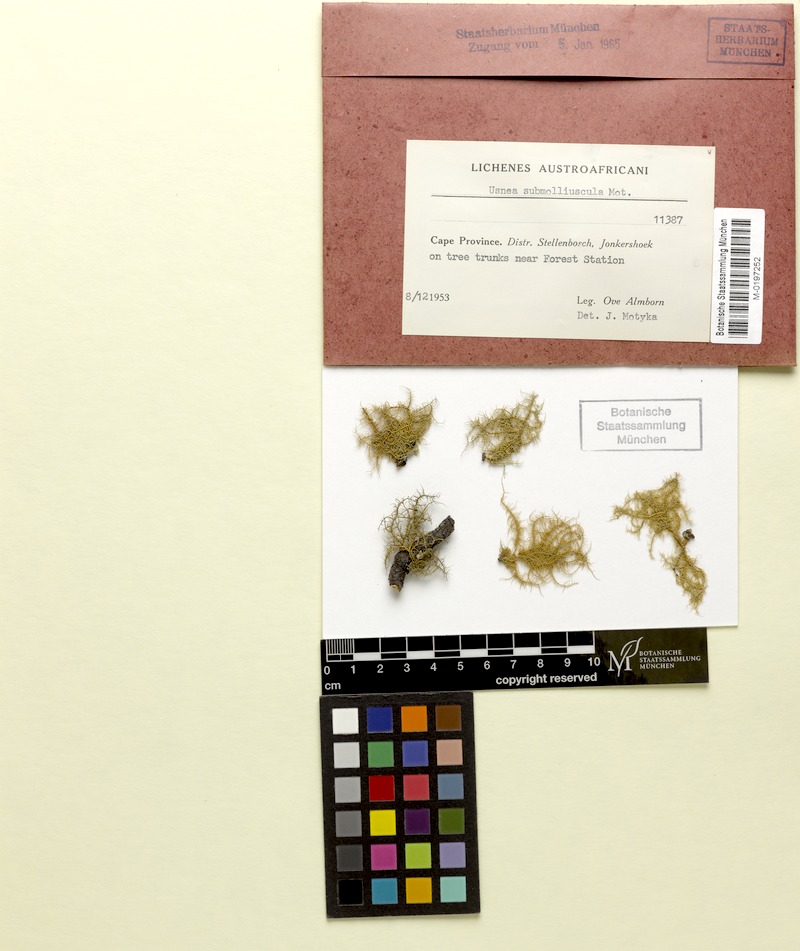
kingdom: Fungi
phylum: Ascomycota
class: Lecanoromycetes
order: Lecanorales
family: Parmeliaceae
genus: Usnea
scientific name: Usnea
